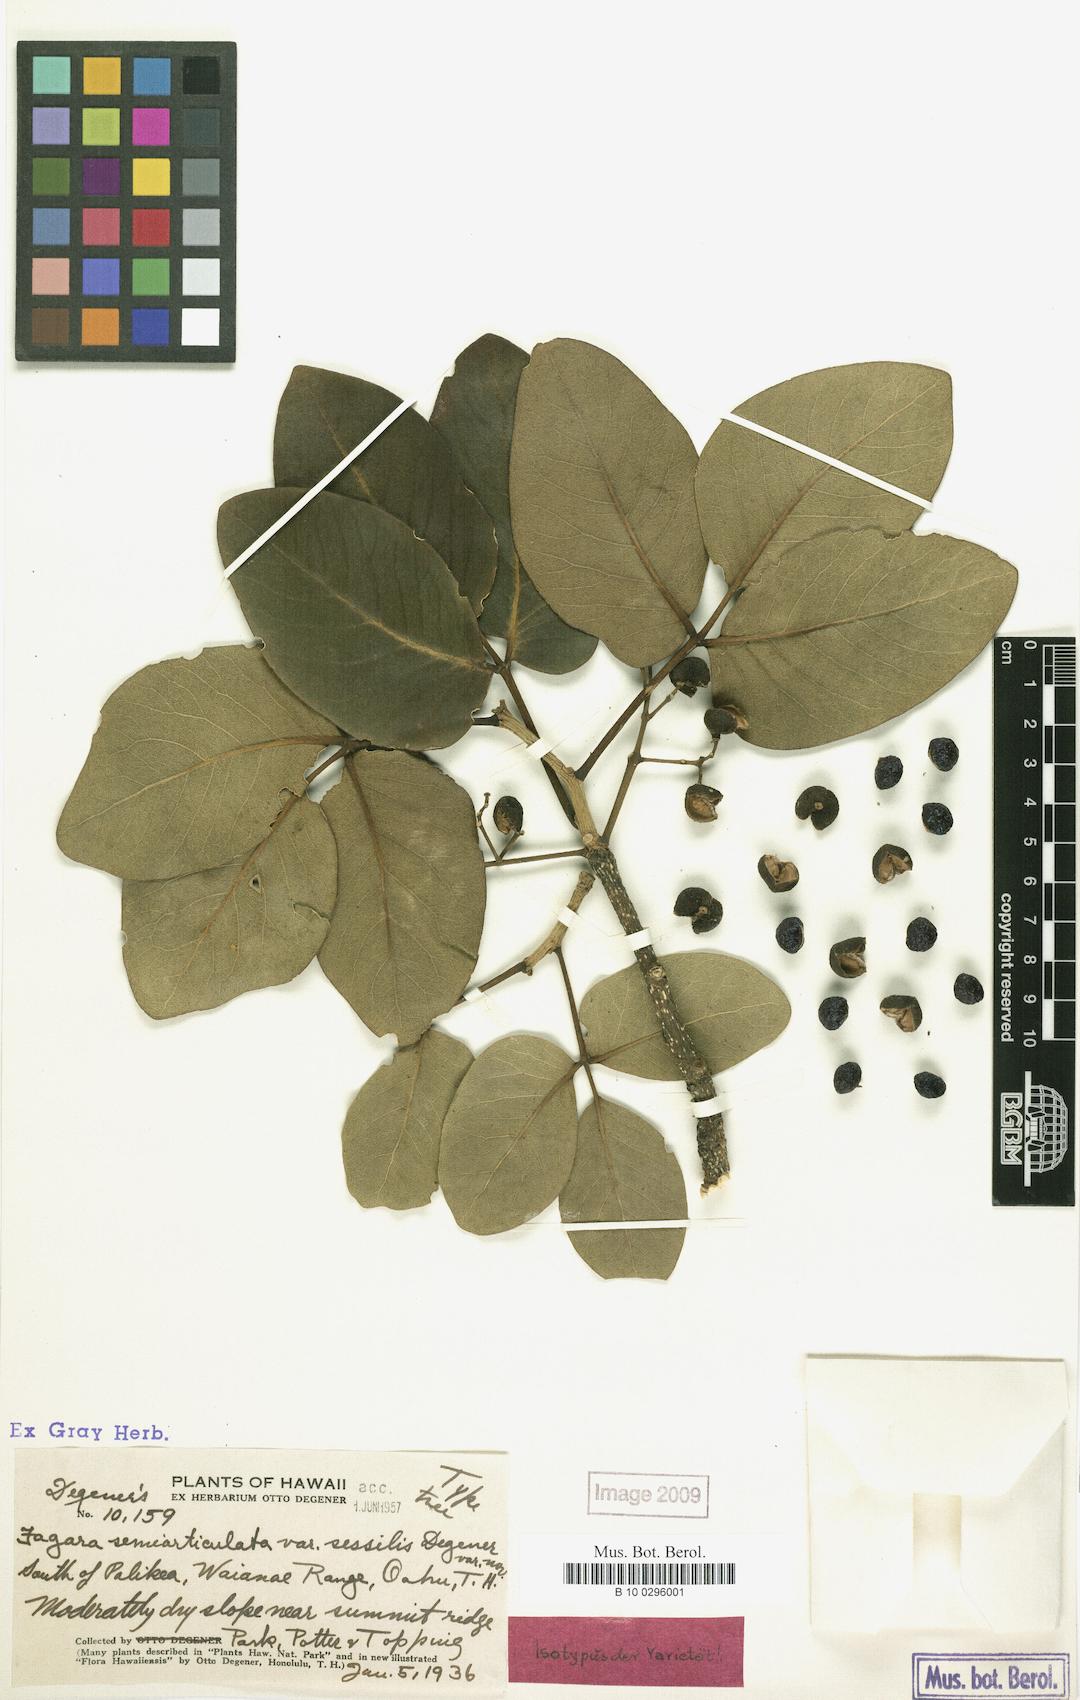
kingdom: Plantae
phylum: Tracheophyta
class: Magnoliopsida
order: Sapindales
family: Rutaceae
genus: Zanthoxylum
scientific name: Zanthoxylum kauaense
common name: Kauai prickly-ash
